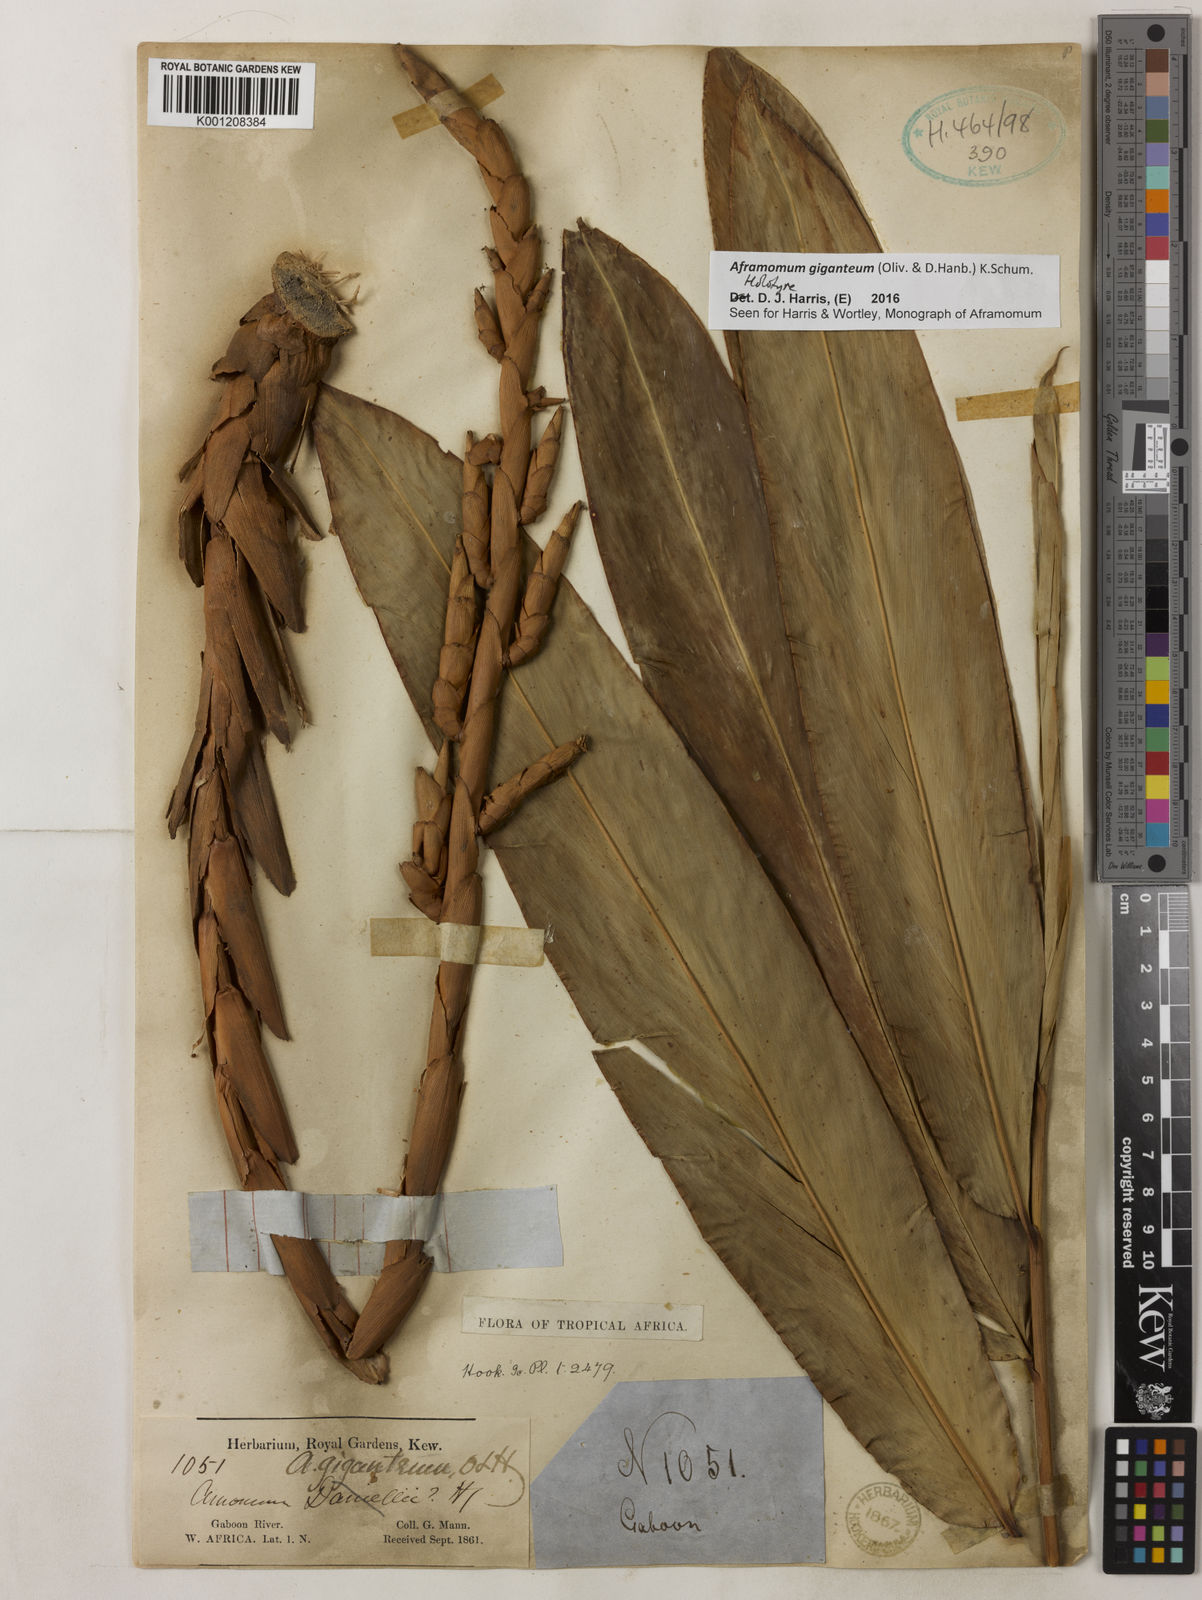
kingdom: Plantae
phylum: Tracheophyta
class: Liliopsida
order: Zingiberales
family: Zingiberaceae
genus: Aframomum
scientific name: Aframomum giganteum
